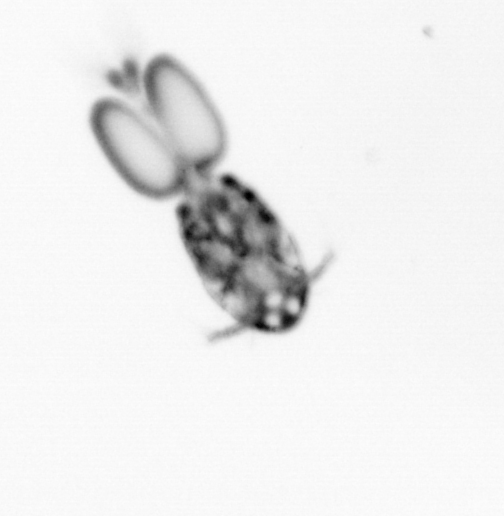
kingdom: Animalia
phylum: Arthropoda
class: Copepoda
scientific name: Copepoda
